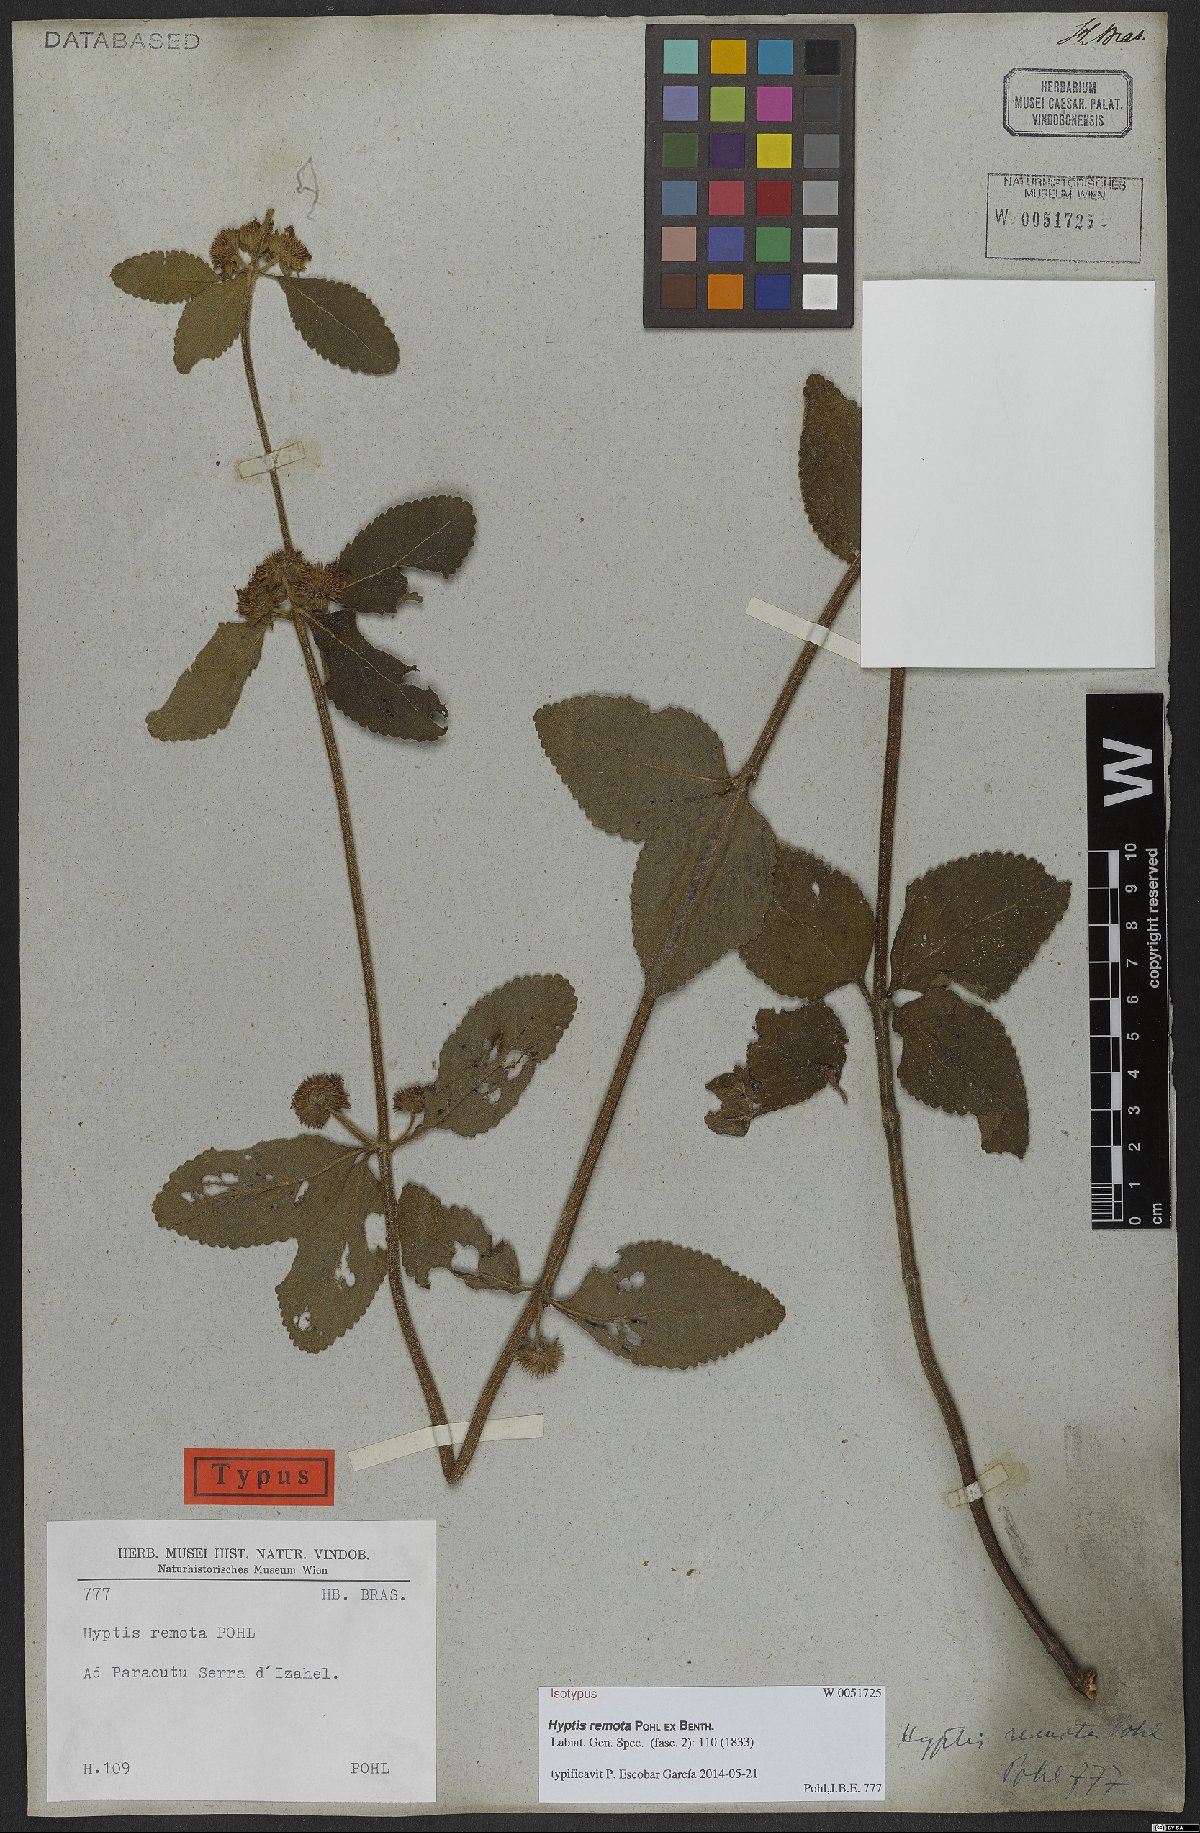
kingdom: Plantae
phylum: Tracheophyta
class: Magnoliopsida
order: Lamiales
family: Lamiaceae
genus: Hyptis
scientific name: Hyptis remota
